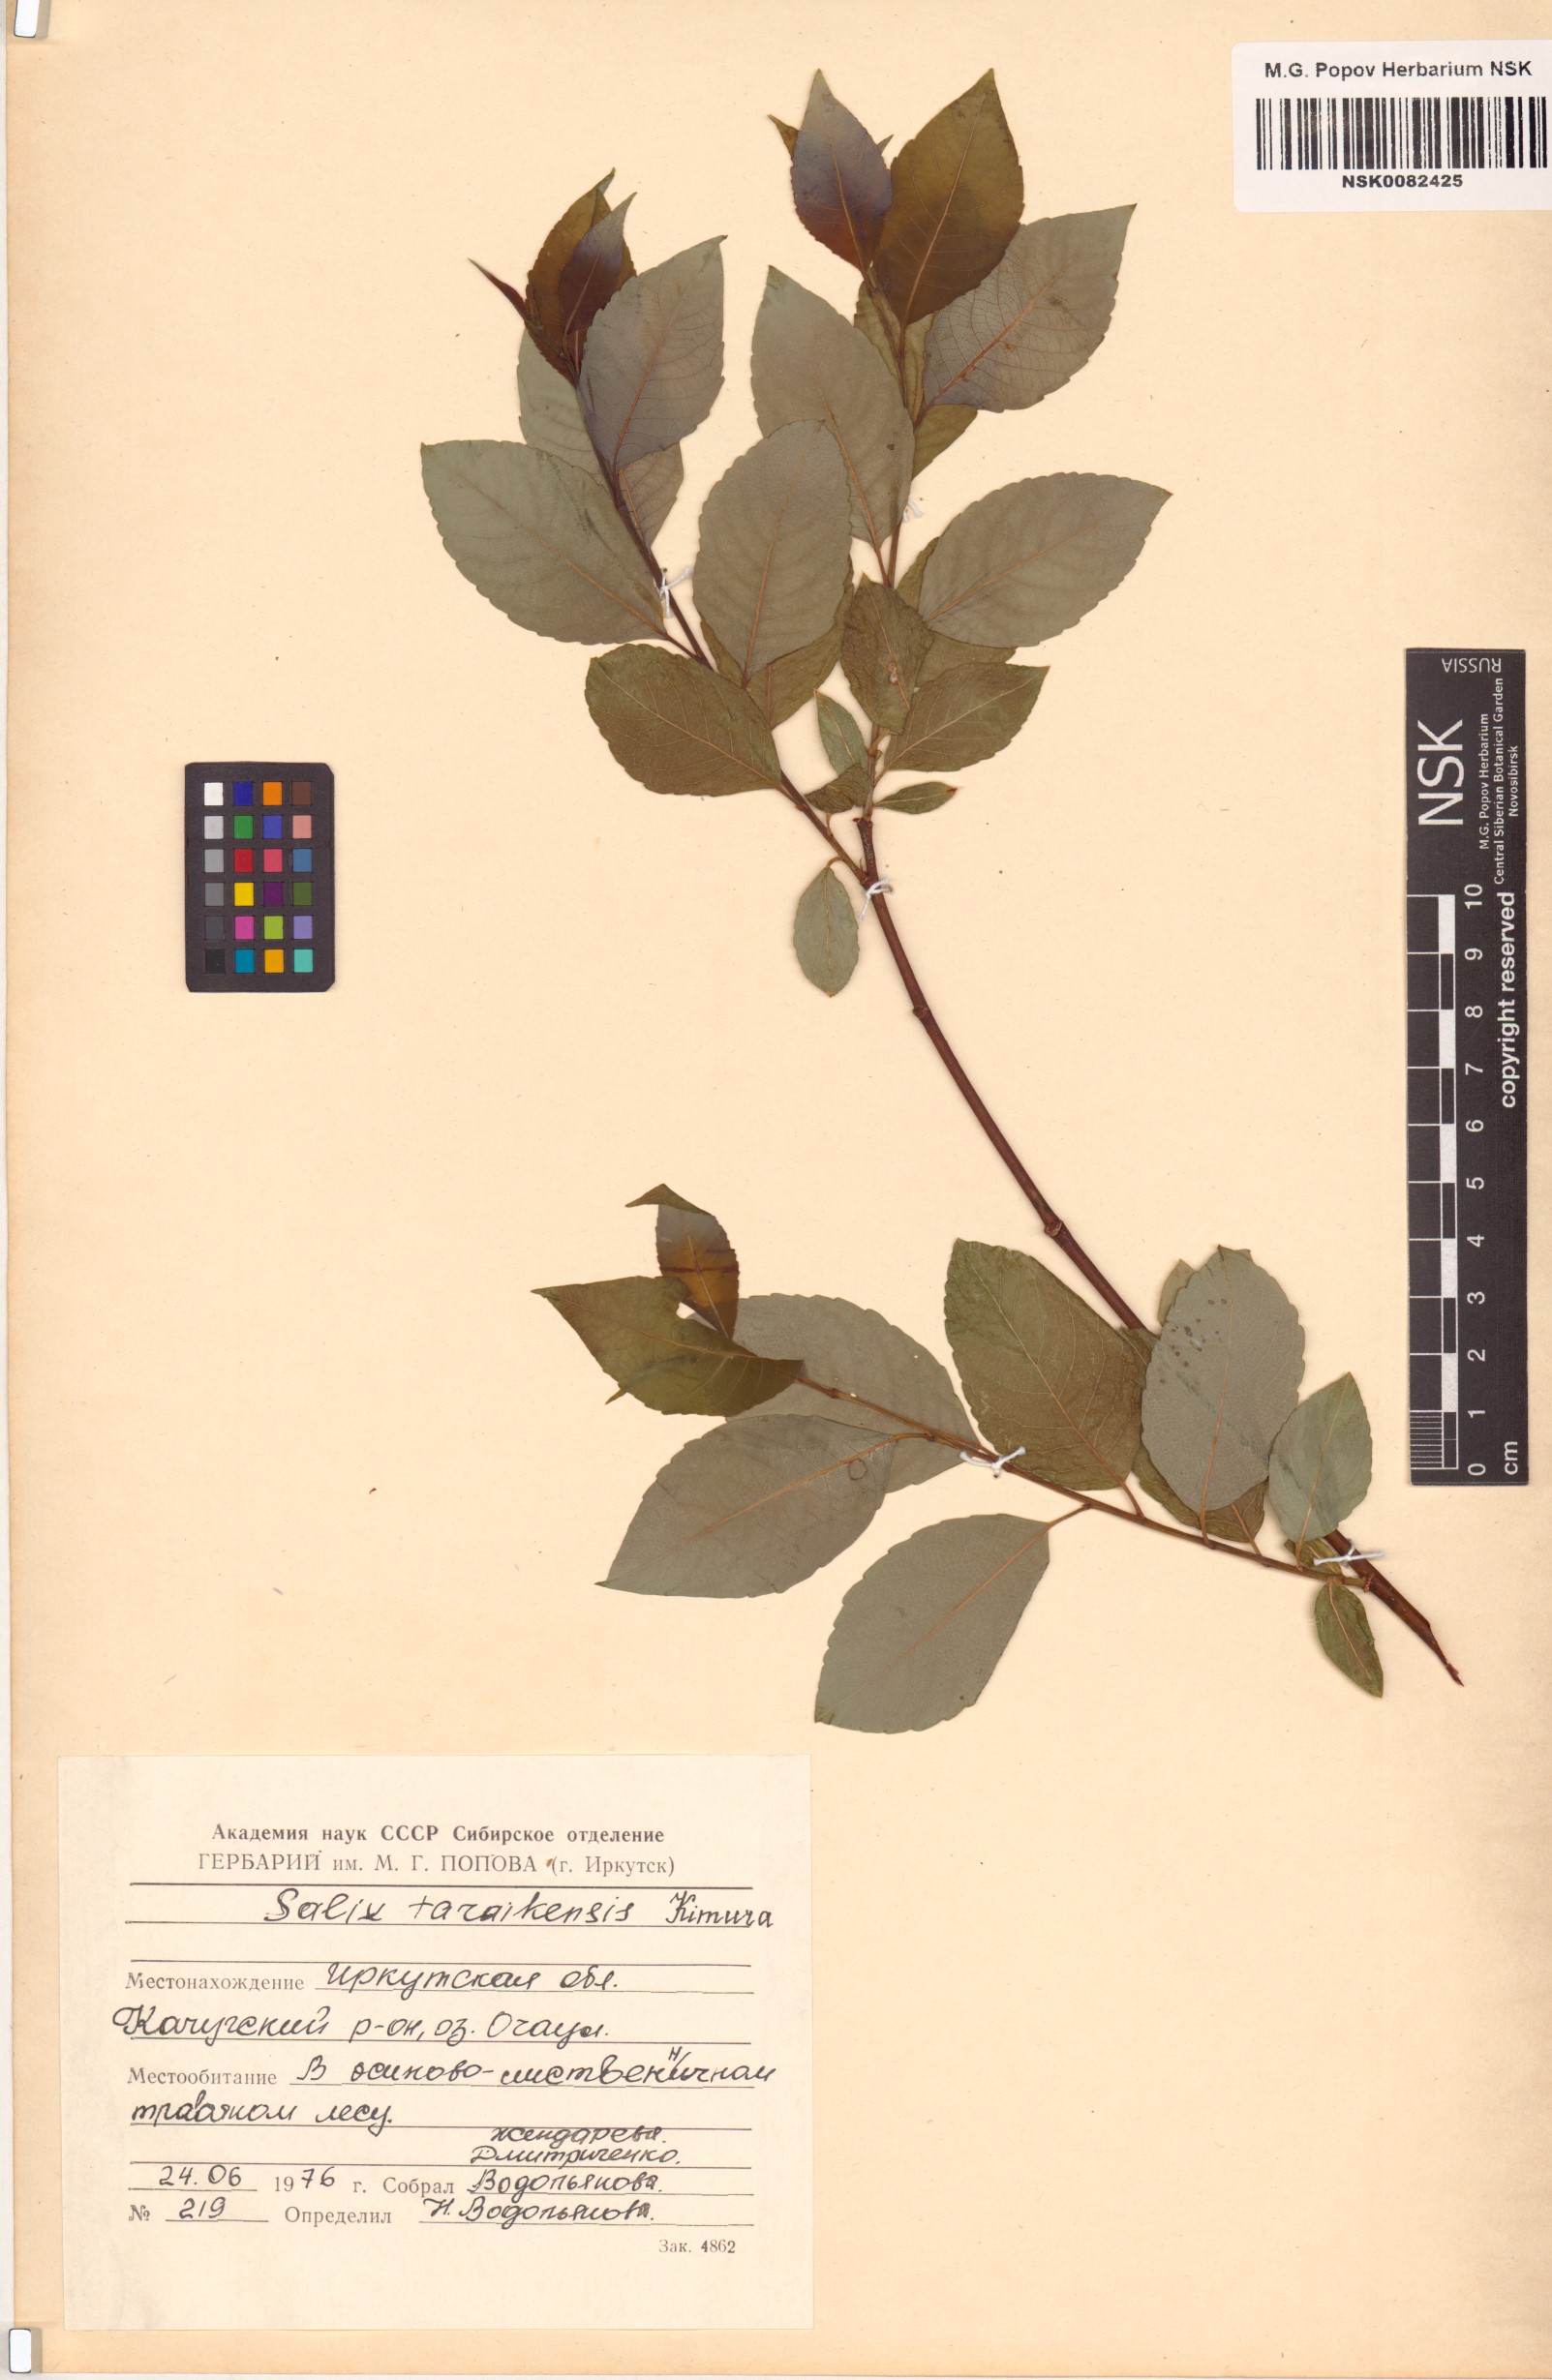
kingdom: Plantae
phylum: Tracheophyta
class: Magnoliopsida
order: Malpighiales
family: Salicaceae
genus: Salix
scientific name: Salix taraikensis
